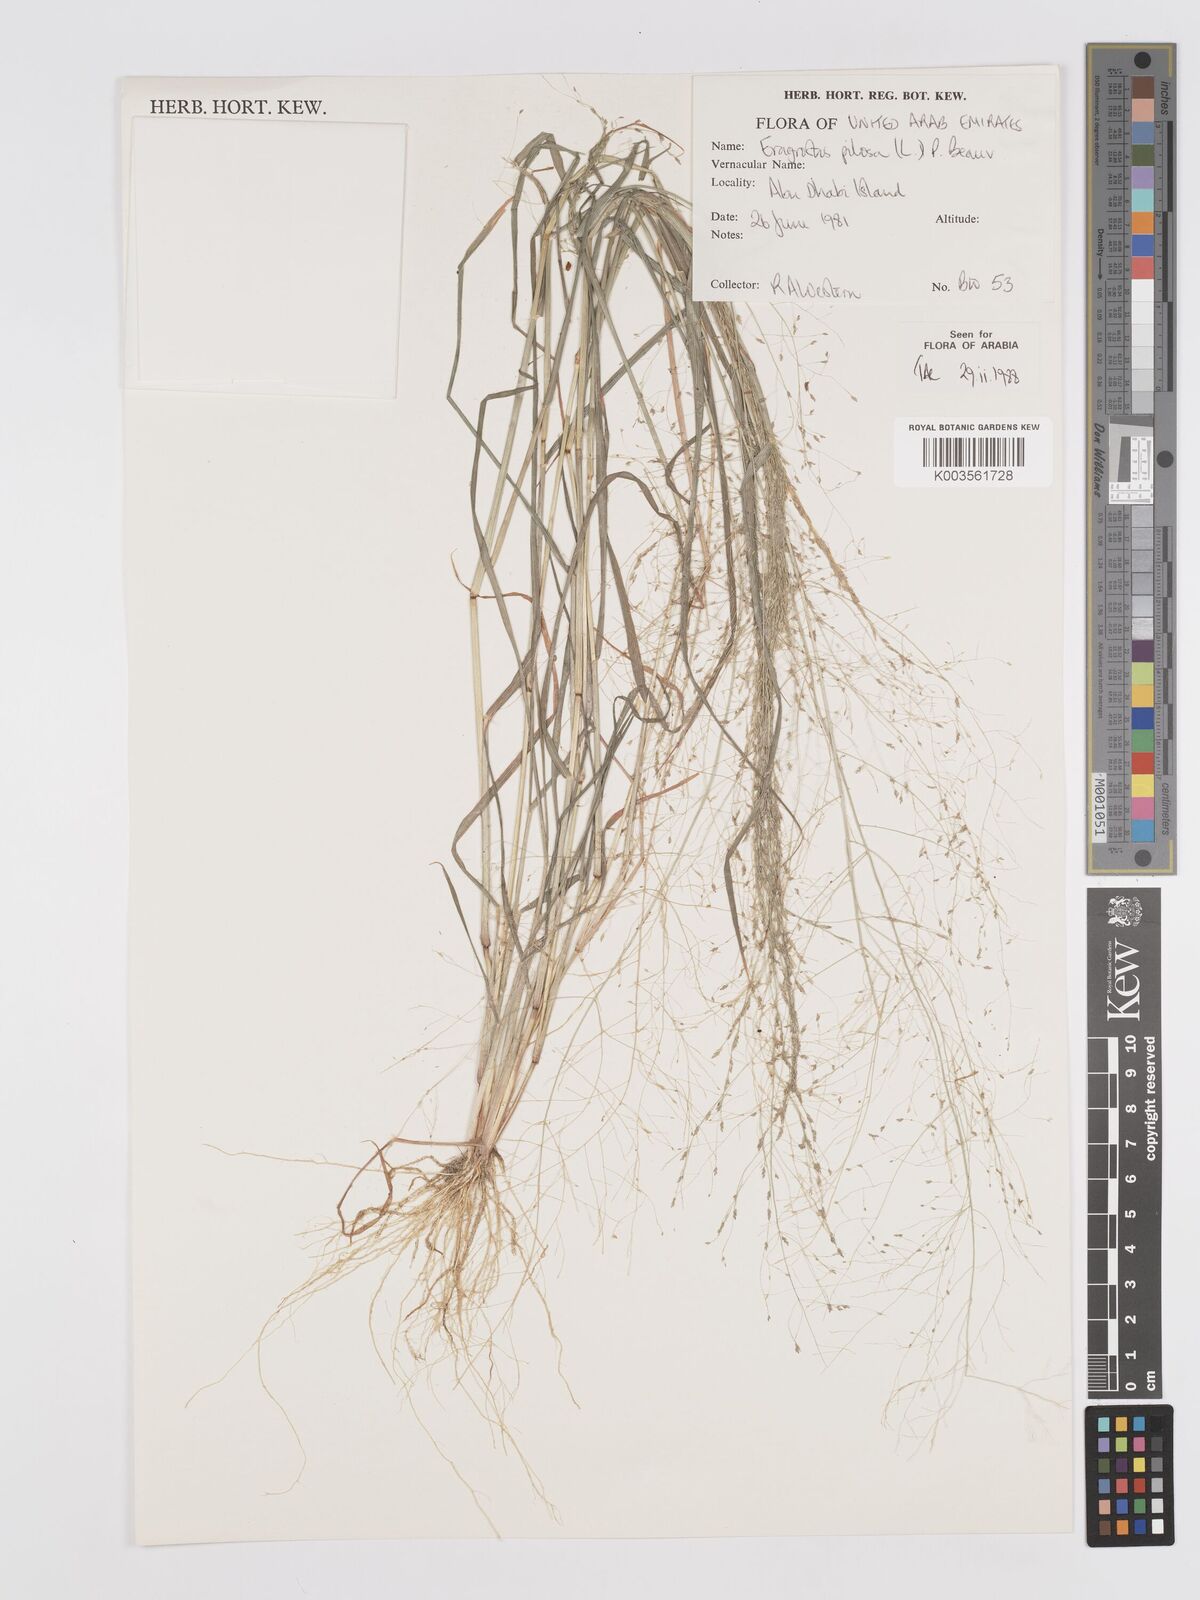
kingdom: Plantae
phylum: Tracheophyta
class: Liliopsida
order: Poales
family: Poaceae
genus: Eragrostis
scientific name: Eragrostis pilosa
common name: Indian lovegrass
